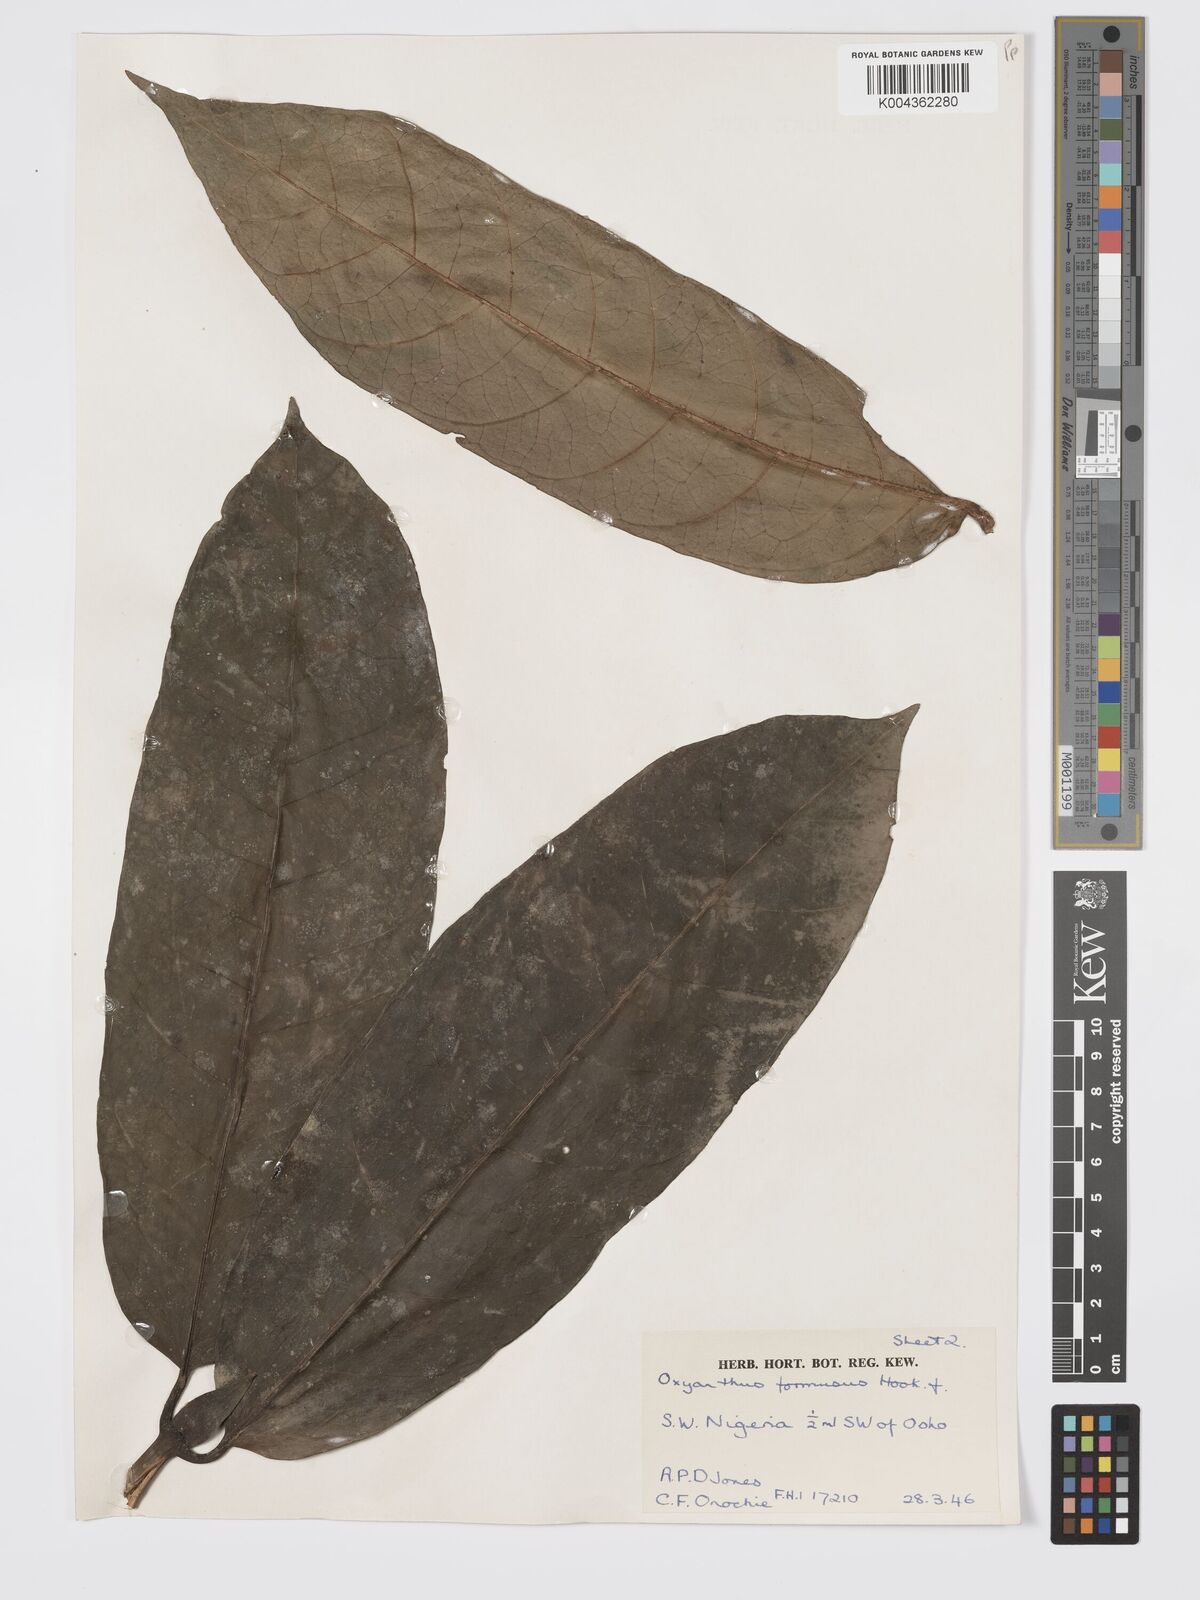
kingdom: Plantae
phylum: Tracheophyta
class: Magnoliopsida
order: Gentianales
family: Rubiaceae
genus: Oxyanthus
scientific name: Oxyanthus formosus
